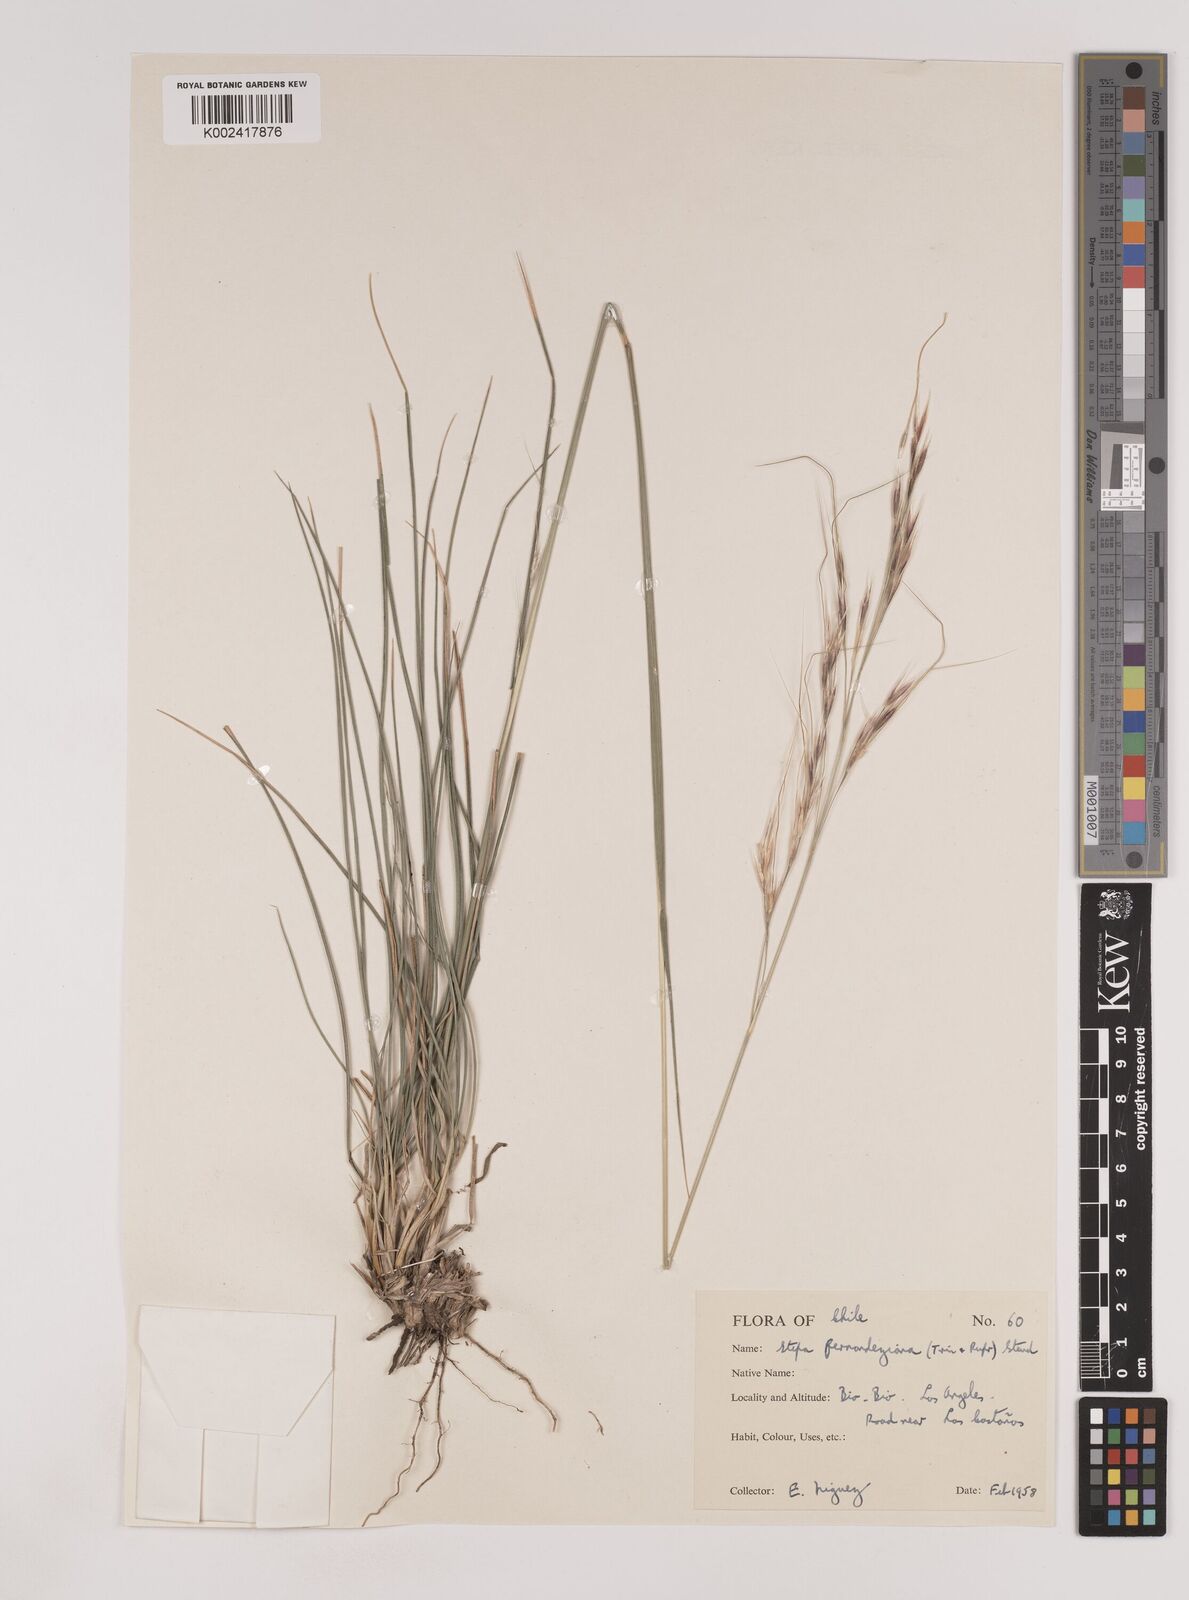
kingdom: Plantae
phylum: Tracheophyta
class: Liliopsida
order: Poales
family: Poaceae
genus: Nassella
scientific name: Nassella neesiana
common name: American needle-grass
